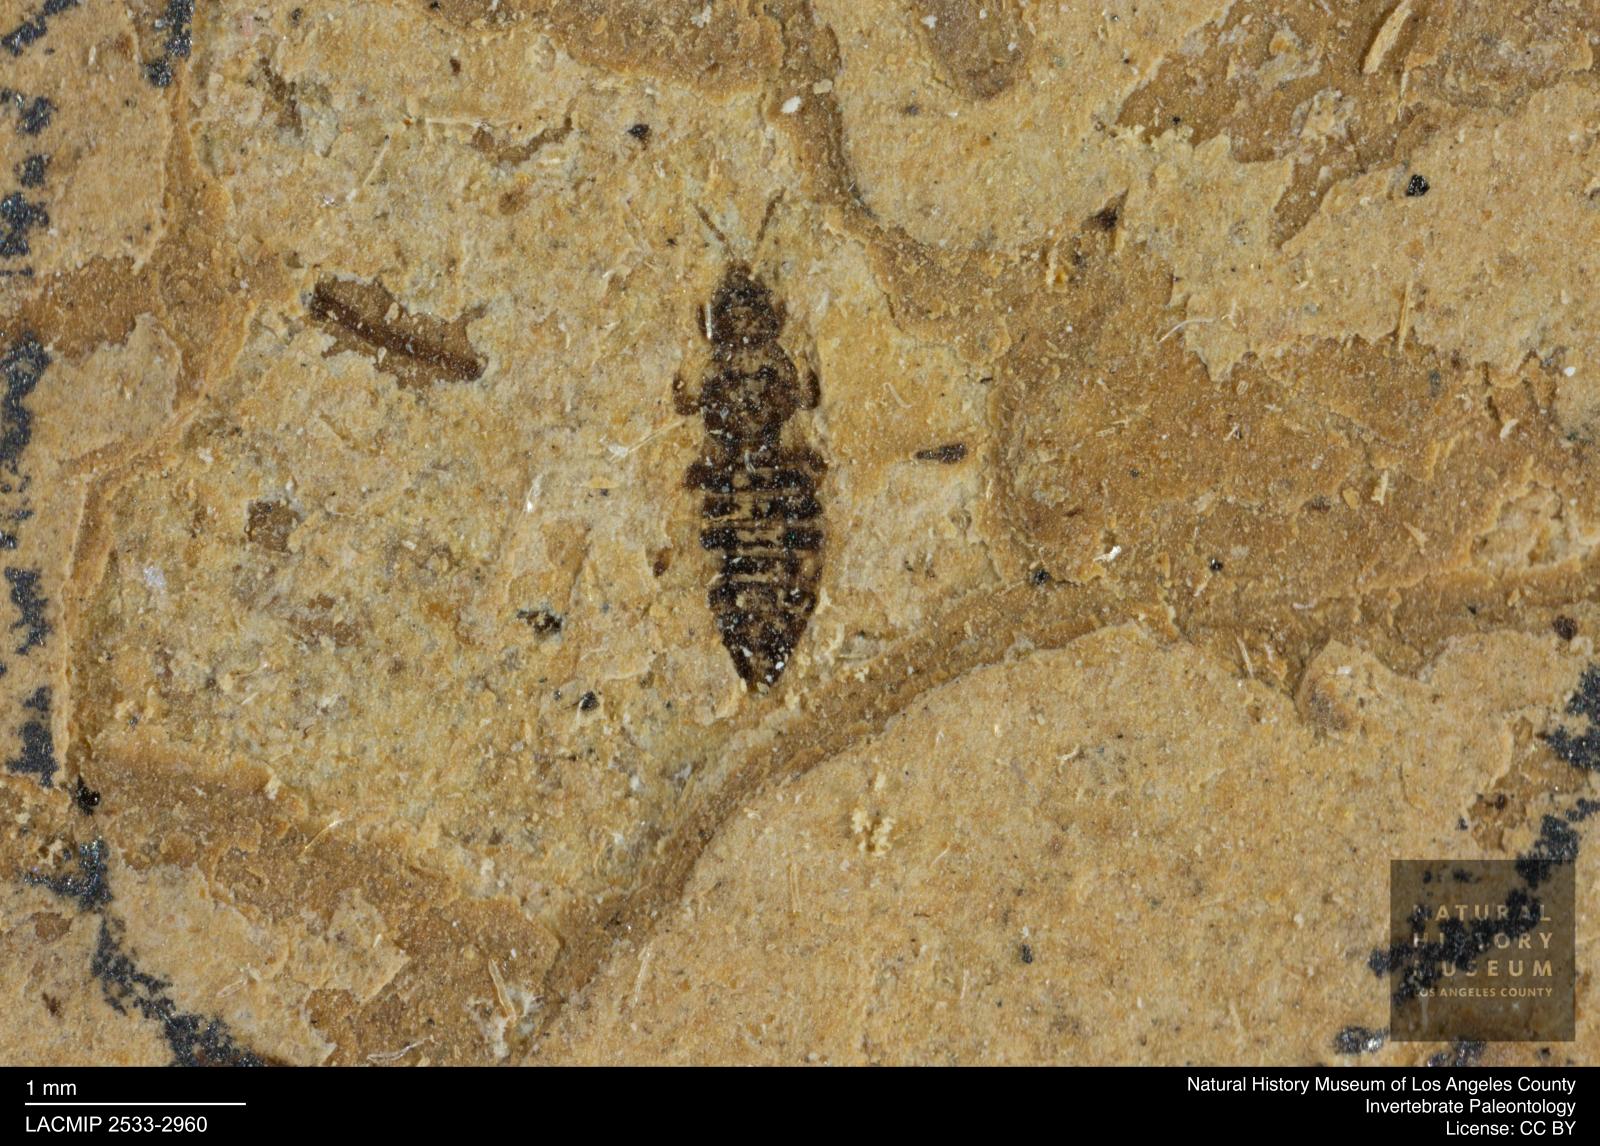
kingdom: Animalia
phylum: Arthropoda
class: Insecta
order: Thysanoptera
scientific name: Thysanoptera
